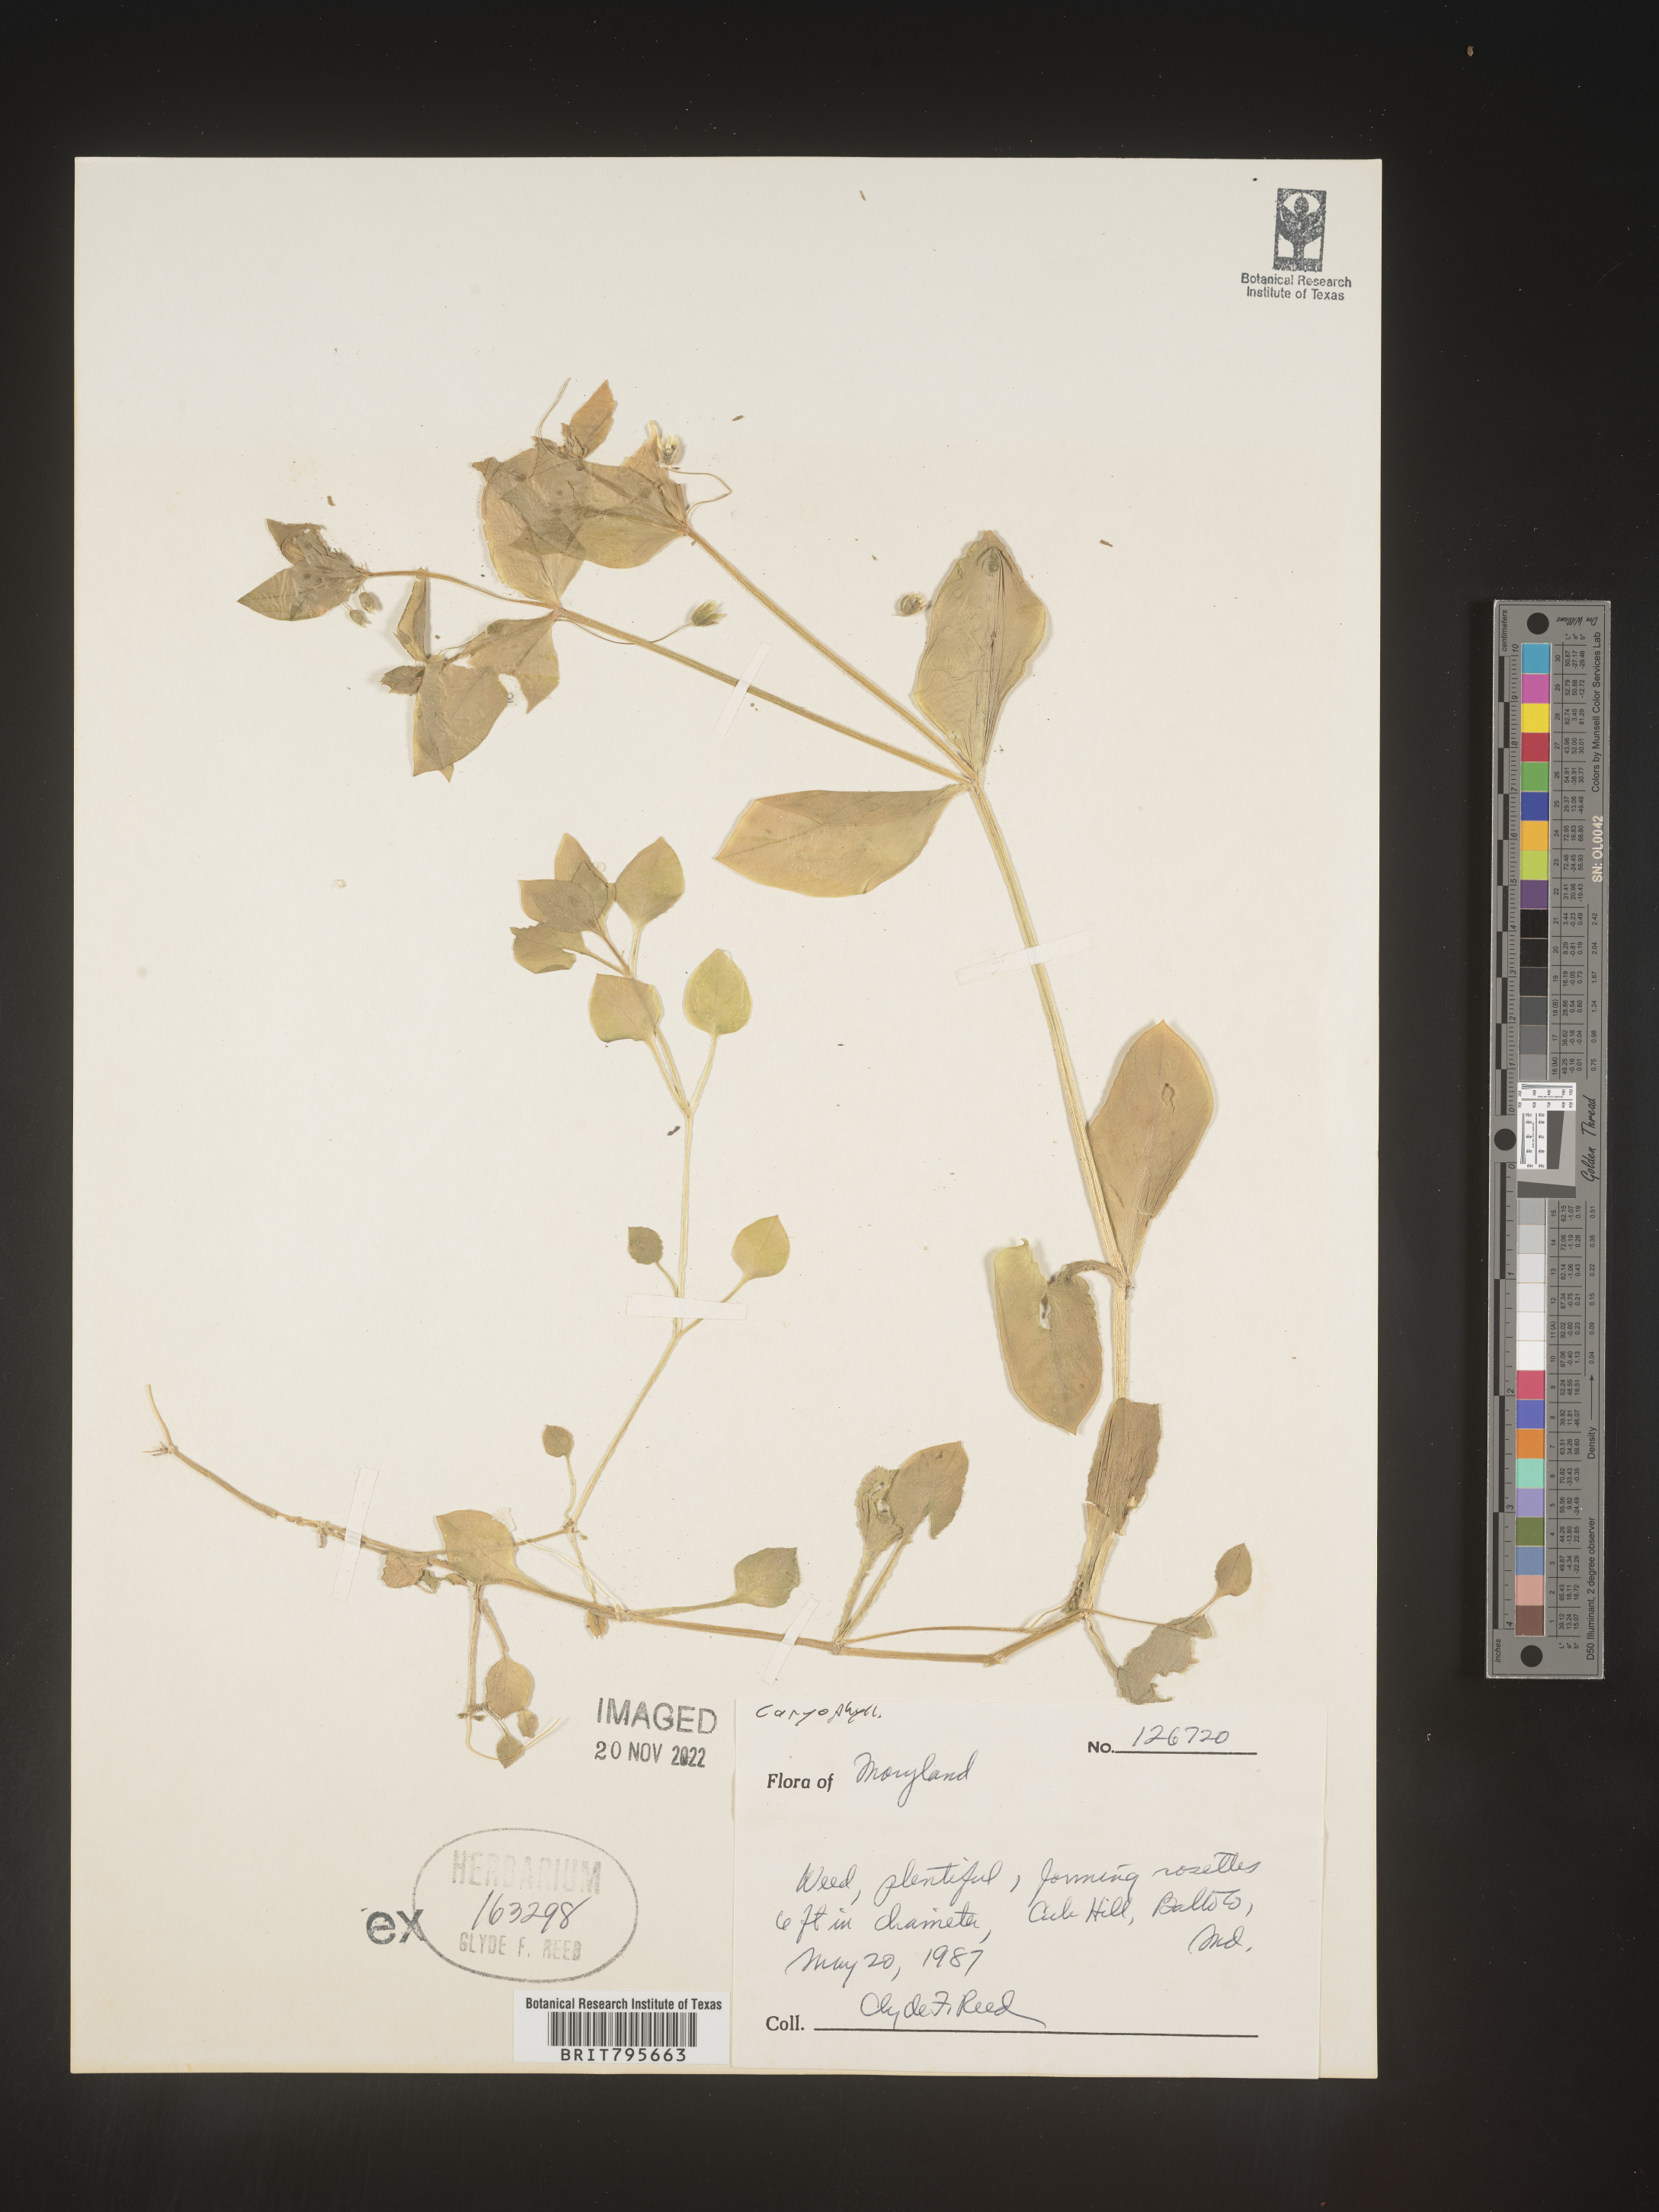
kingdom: Plantae
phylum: Tracheophyta
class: Magnoliopsida
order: Caryophyllales
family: Caryophyllaceae
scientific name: Caryophyllaceae
